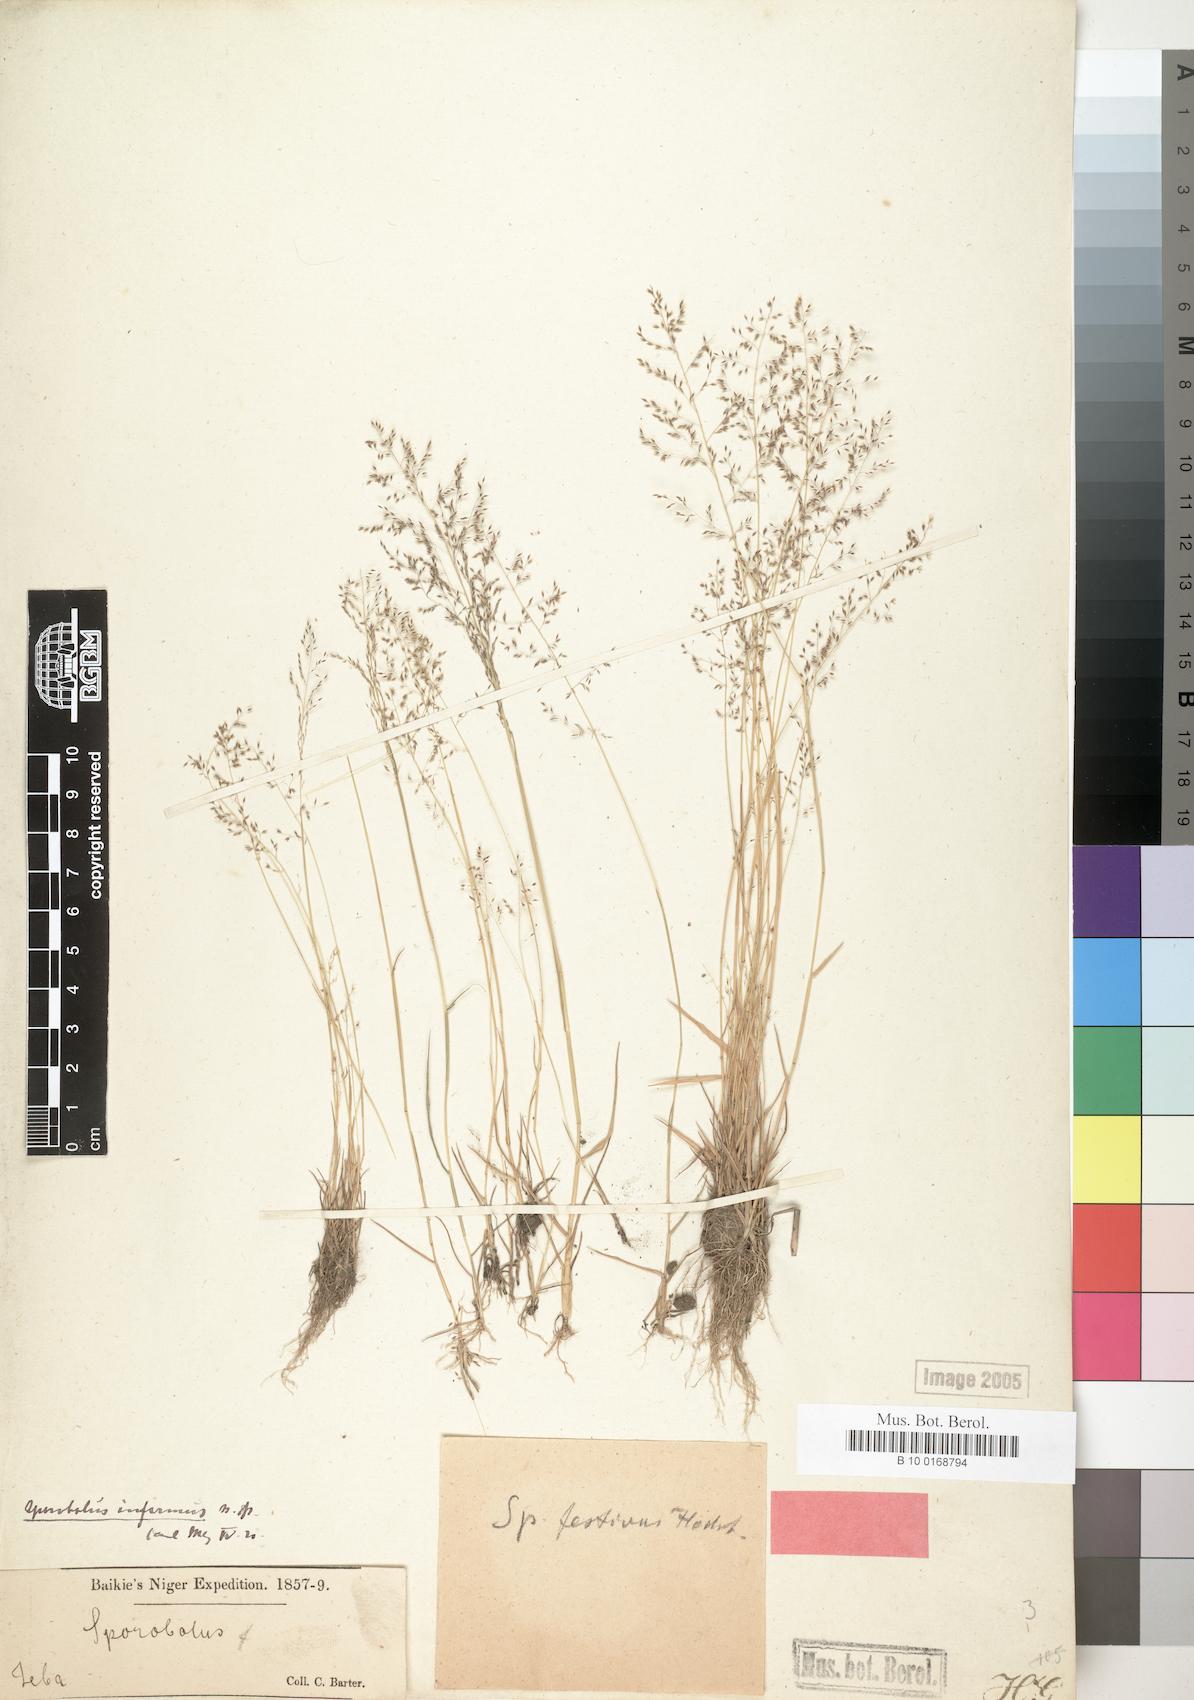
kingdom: Plantae
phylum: Tracheophyta
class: Liliopsida
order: Poales
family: Poaceae
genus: Sporobolus
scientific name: Sporobolus infirmus
